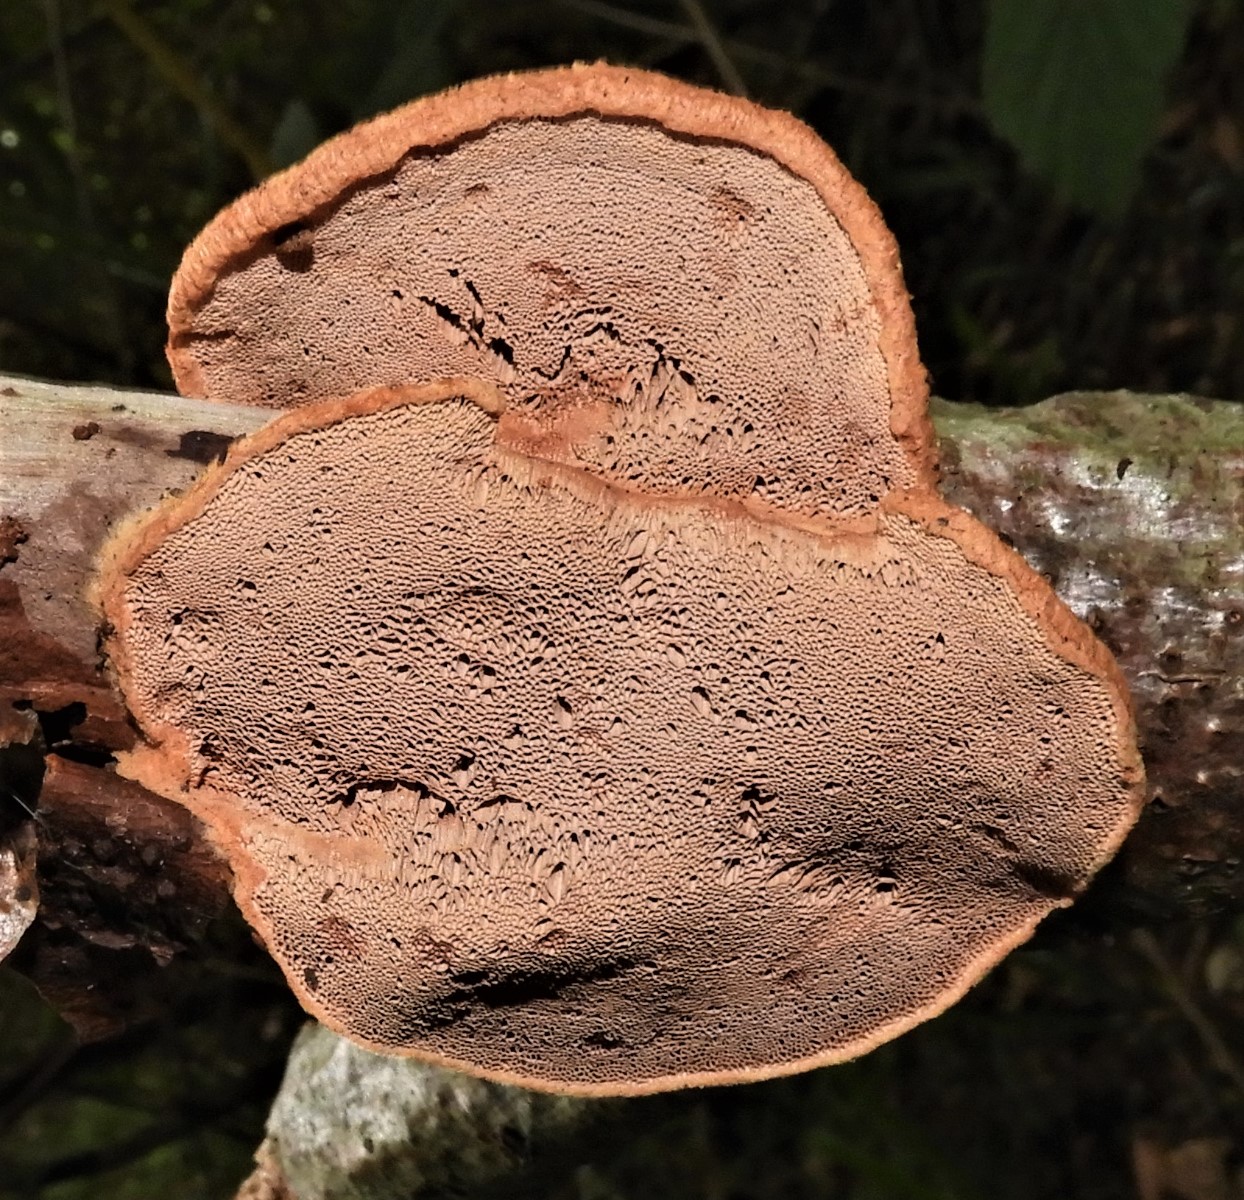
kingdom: Fungi
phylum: Basidiomycota
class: Agaricomycetes
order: Polyporales
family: Phanerochaetaceae
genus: Hapalopilus
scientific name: Hapalopilus rutilans
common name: rødlig okkerporesvamp
